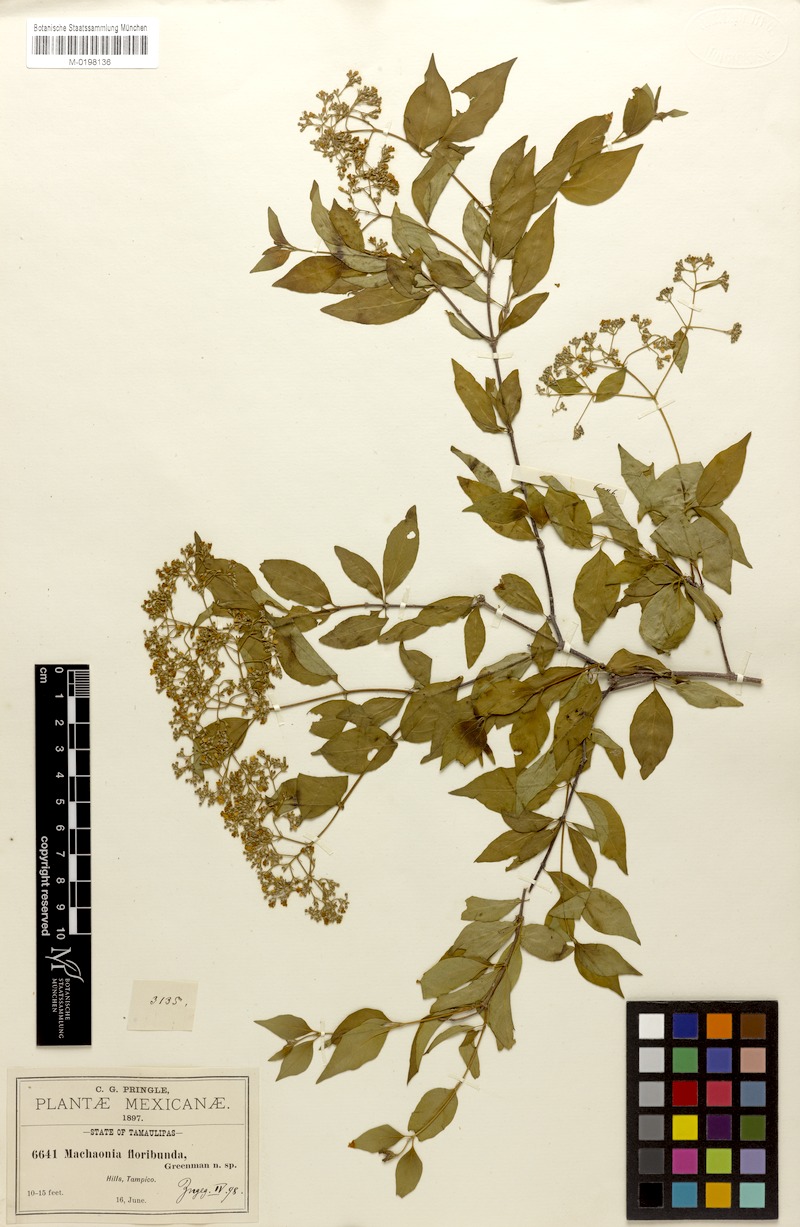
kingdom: Plantae
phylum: Tracheophyta
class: Magnoliopsida
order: Gentianales
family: Rubiaceae
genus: Machaonia
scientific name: Machaonia acuminata
